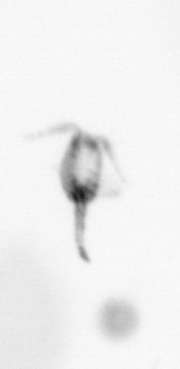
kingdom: Animalia
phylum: Annelida
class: Polychaeta
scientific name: Polychaeta
